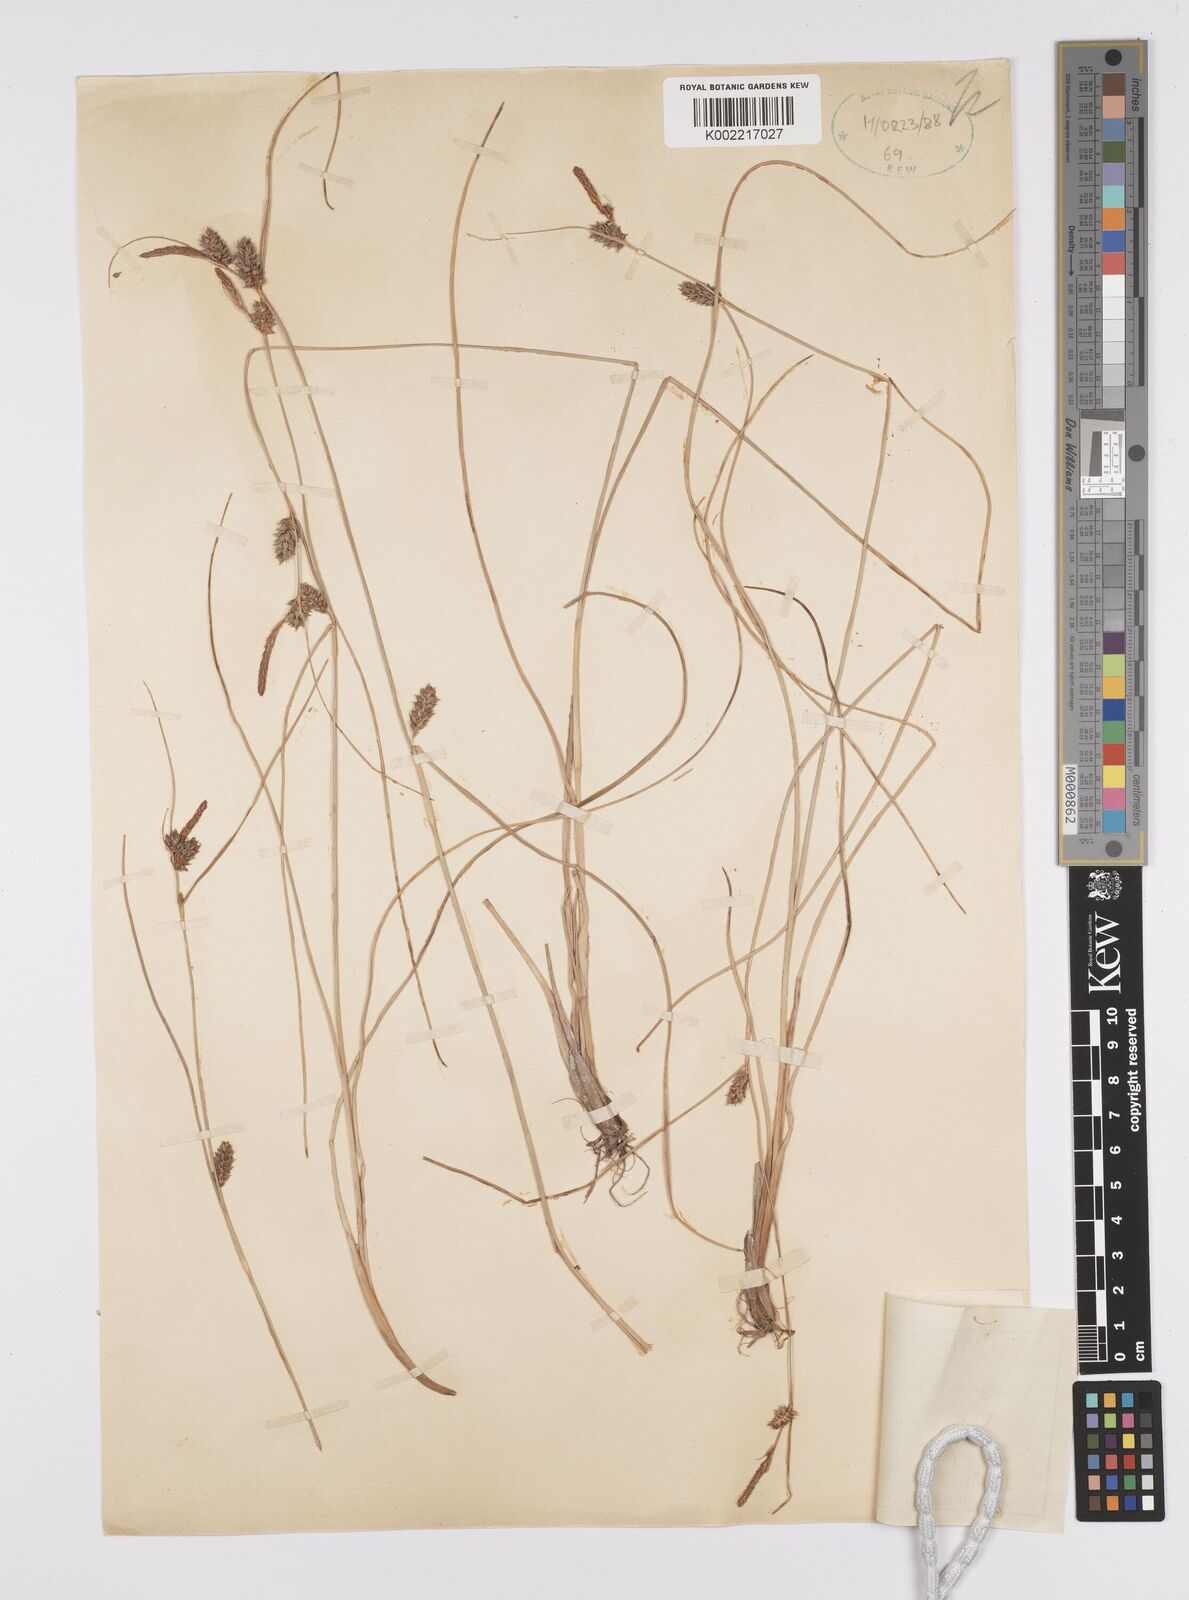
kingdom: Plantae
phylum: Tracheophyta
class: Liliopsida
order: Poales
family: Cyperaceae
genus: Carex
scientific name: Carex extensa
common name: Long-bracted sedge
